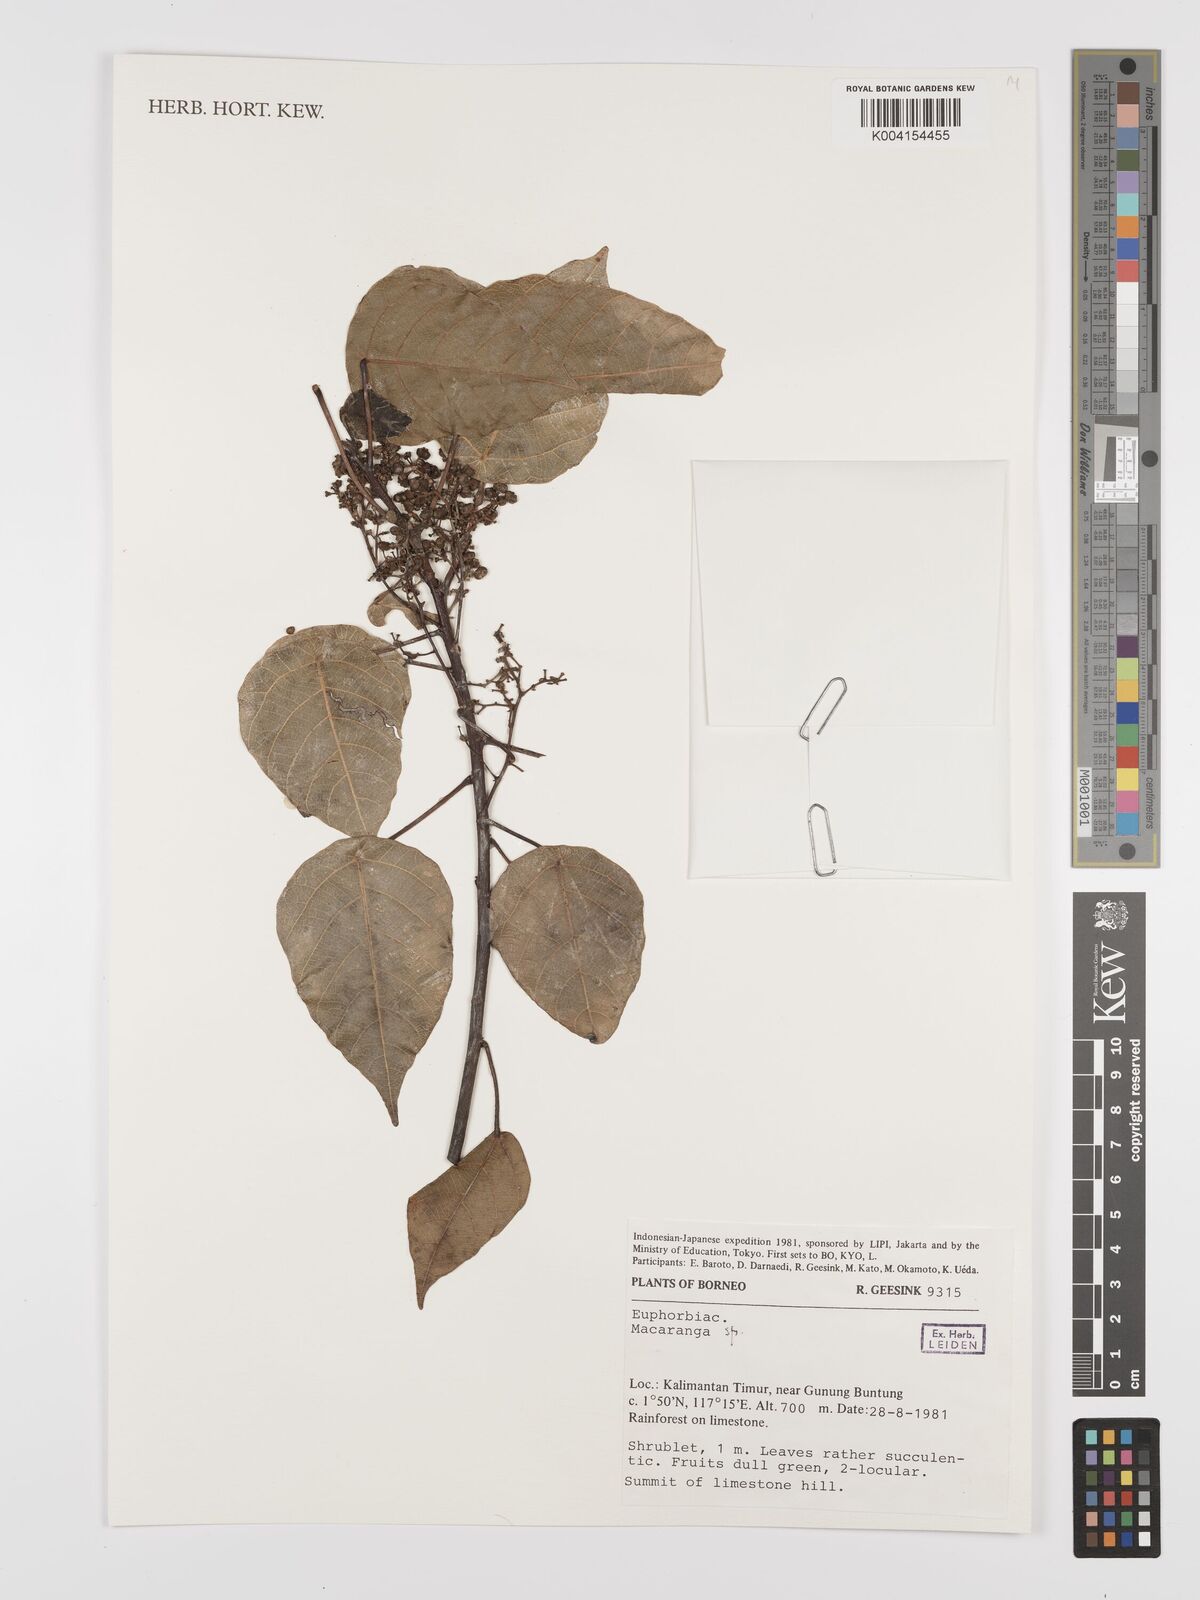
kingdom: Plantae
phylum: Tracheophyta
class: Magnoliopsida
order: Malpighiales
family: Euphorbiaceae
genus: Macaranga
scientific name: Macaranga
